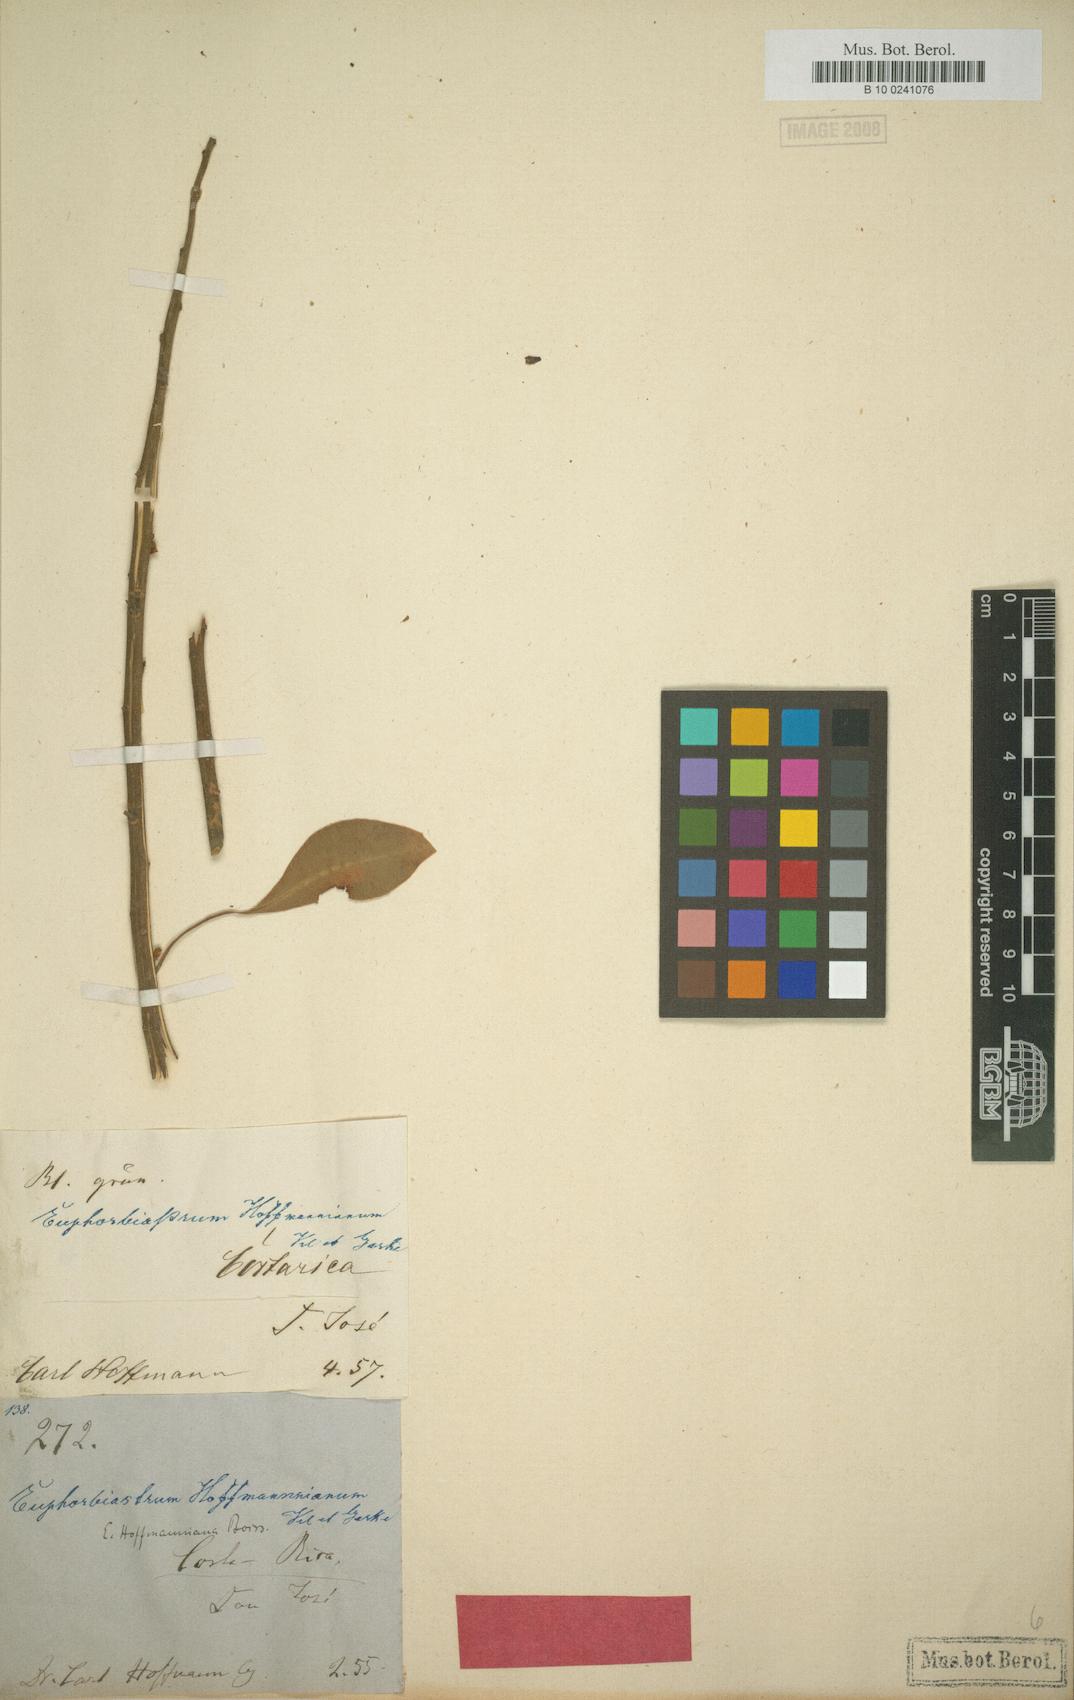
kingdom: Plantae
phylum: Tracheophyta
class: Magnoliopsida
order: Malpighiales
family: Euphorbiaceae
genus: Euphorbia
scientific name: Euphorbia hoffmanniana
